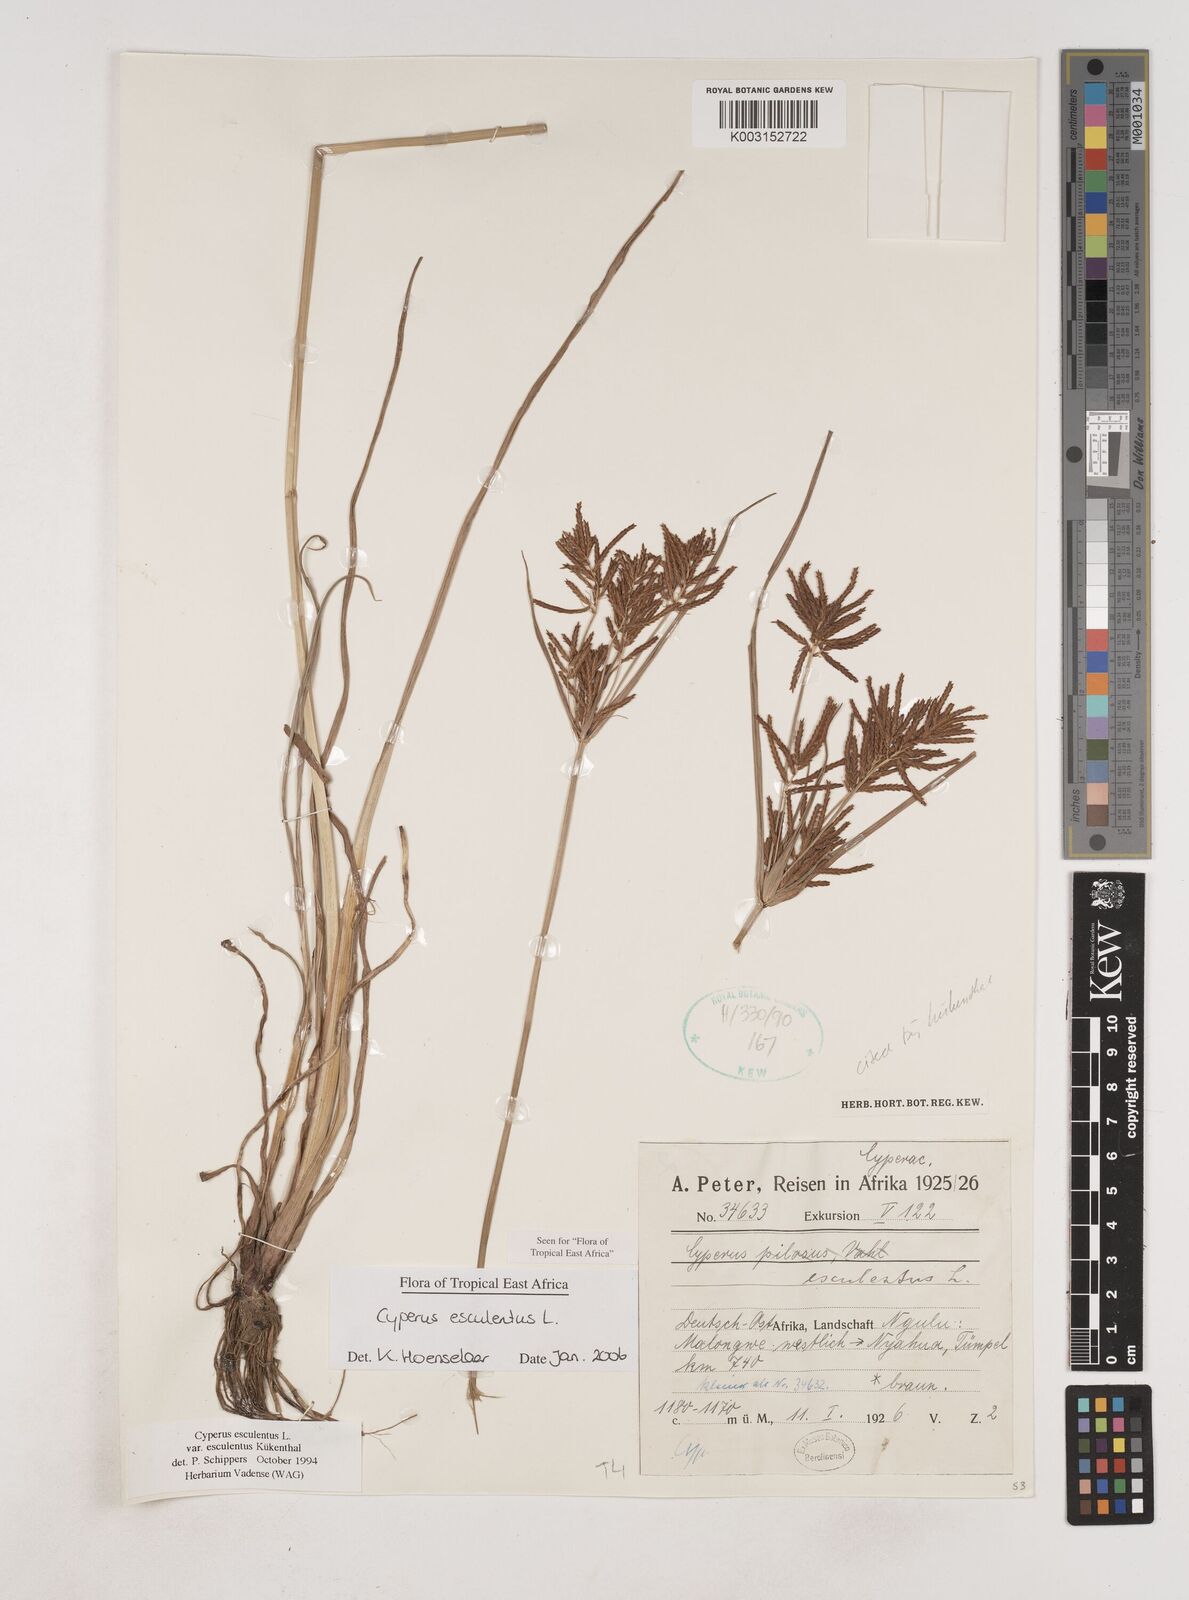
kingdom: Plantae
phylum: Tracheophyta
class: Liliopsida
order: Poales
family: Cyperaceae
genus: Cyperus
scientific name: Cyperus esculentus
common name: Yellow nutsedge
